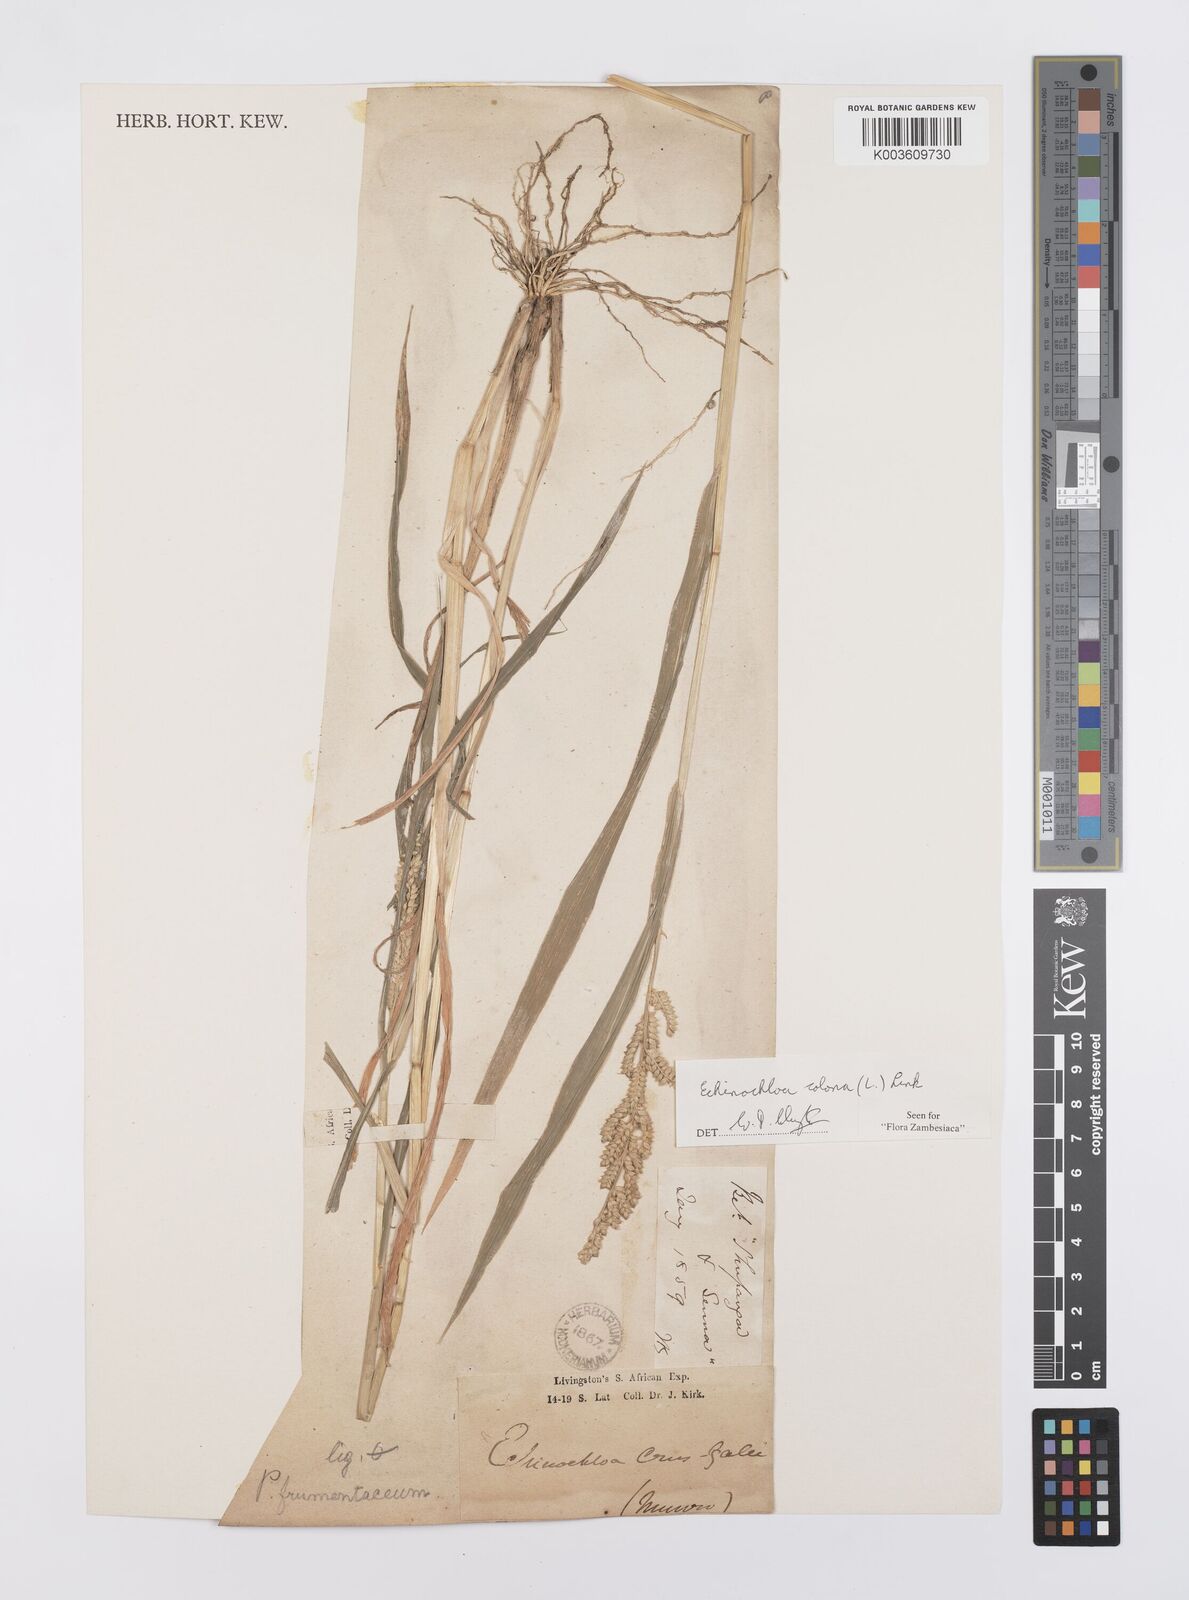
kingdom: Plantae
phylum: Tracheophyta
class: Liliopsida
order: Poales
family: Poaceae
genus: Echinochloa
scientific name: Echinochloa colonum
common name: Jungle rice
